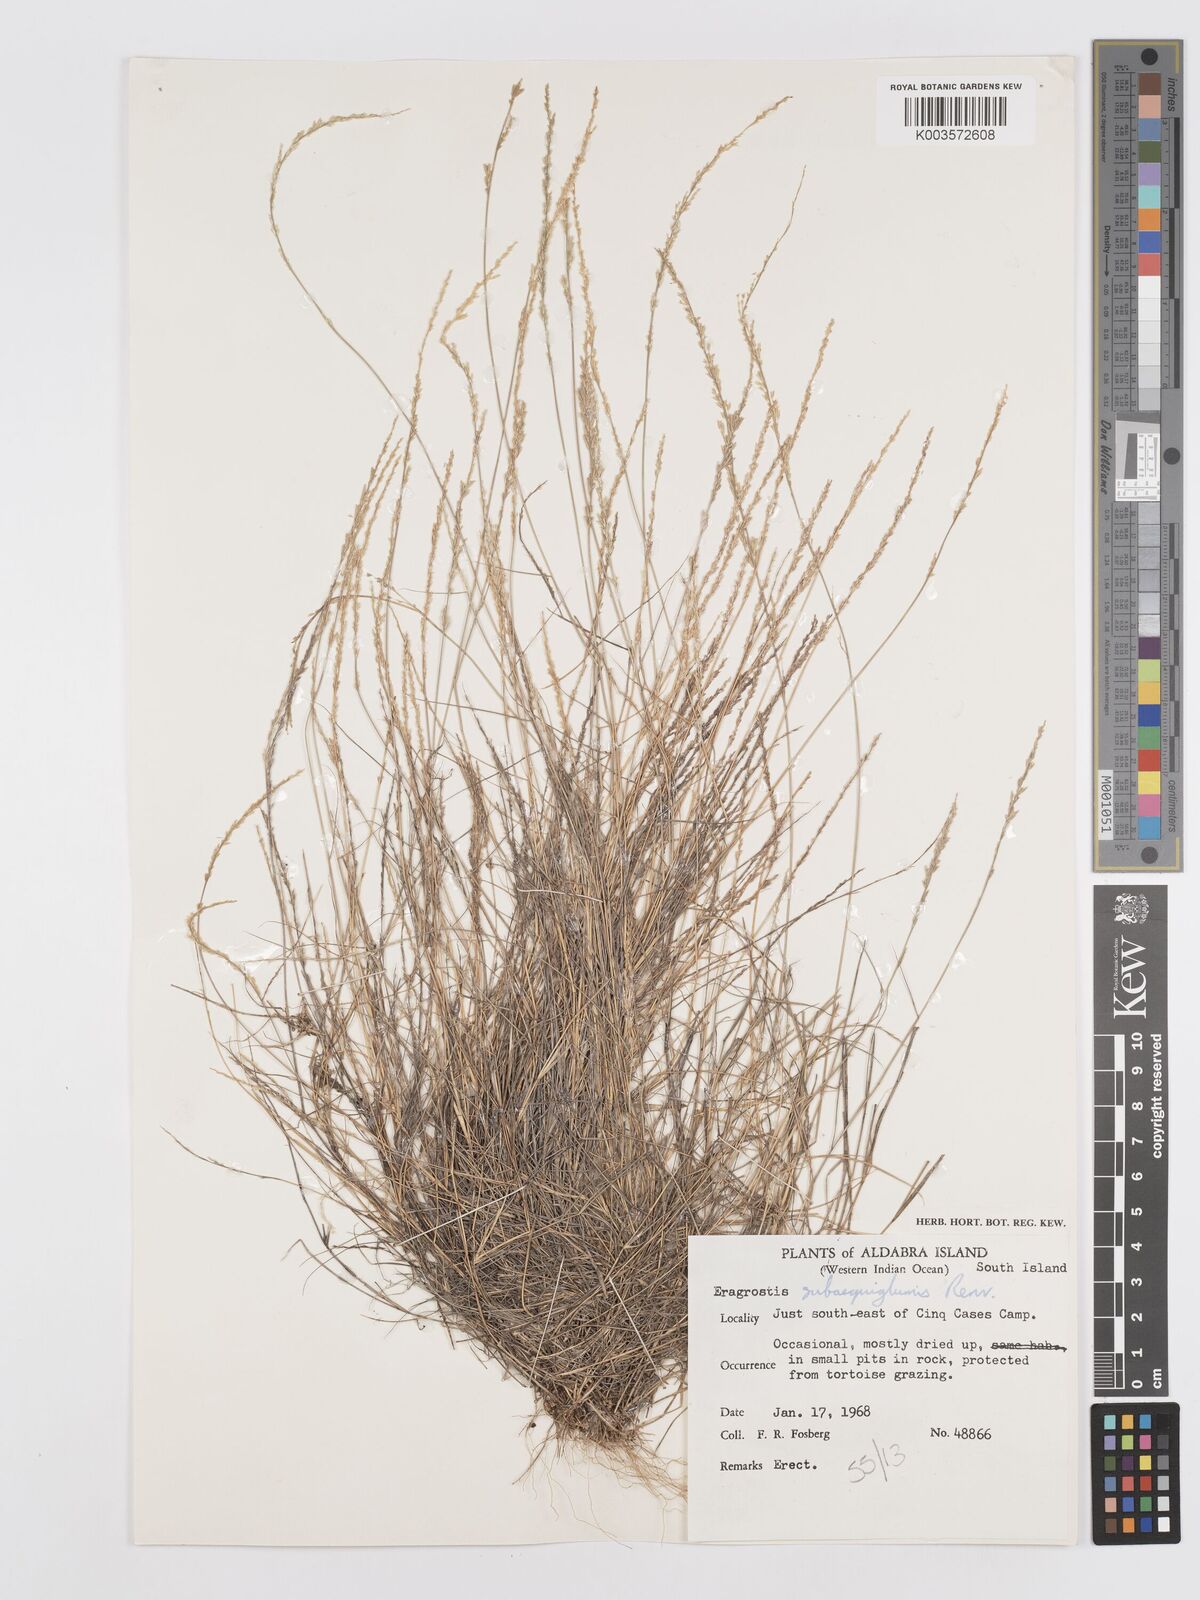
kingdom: Plantae
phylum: Tracheophyta
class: Liliopsida
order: Poales
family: Poaceae
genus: Eragrostis
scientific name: Eragrostis subaequiglumis
